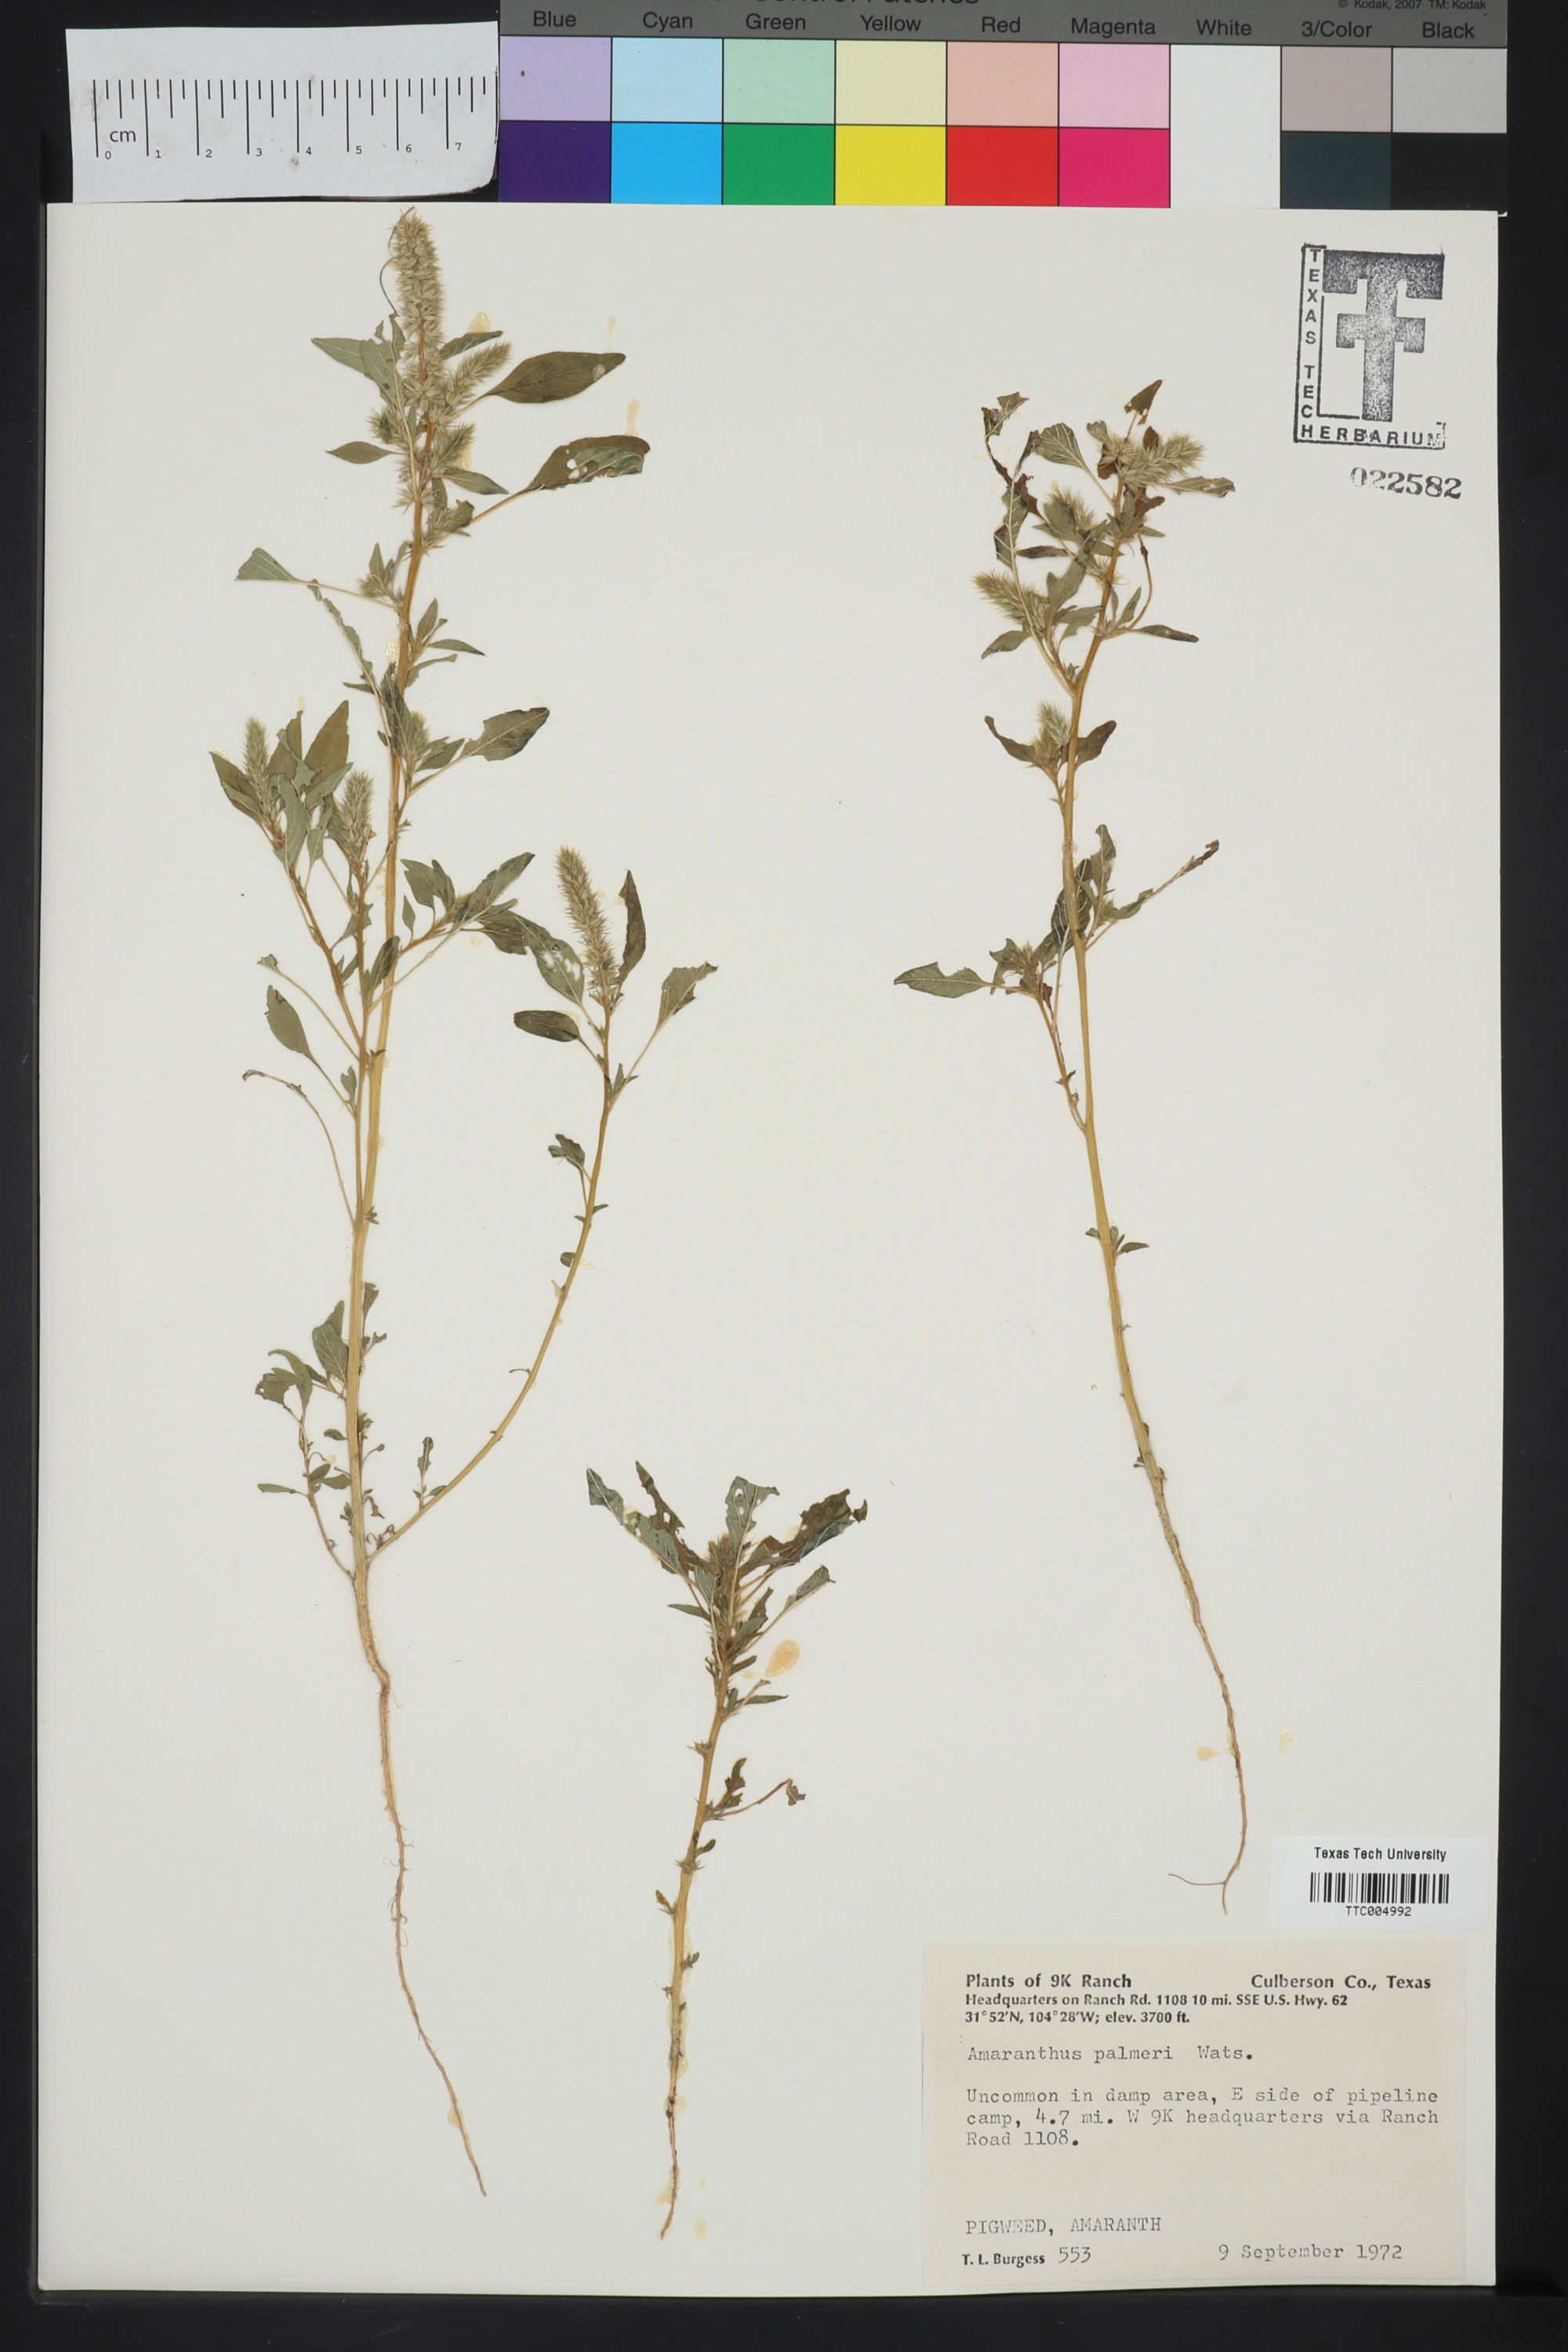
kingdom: Plantae
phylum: Tracheophyta
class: Magnoliopsida
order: Caryophyllales
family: Amaranthaceae
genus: Amaranthus
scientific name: Amaranthus palmeri
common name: Dioecious amaranth
